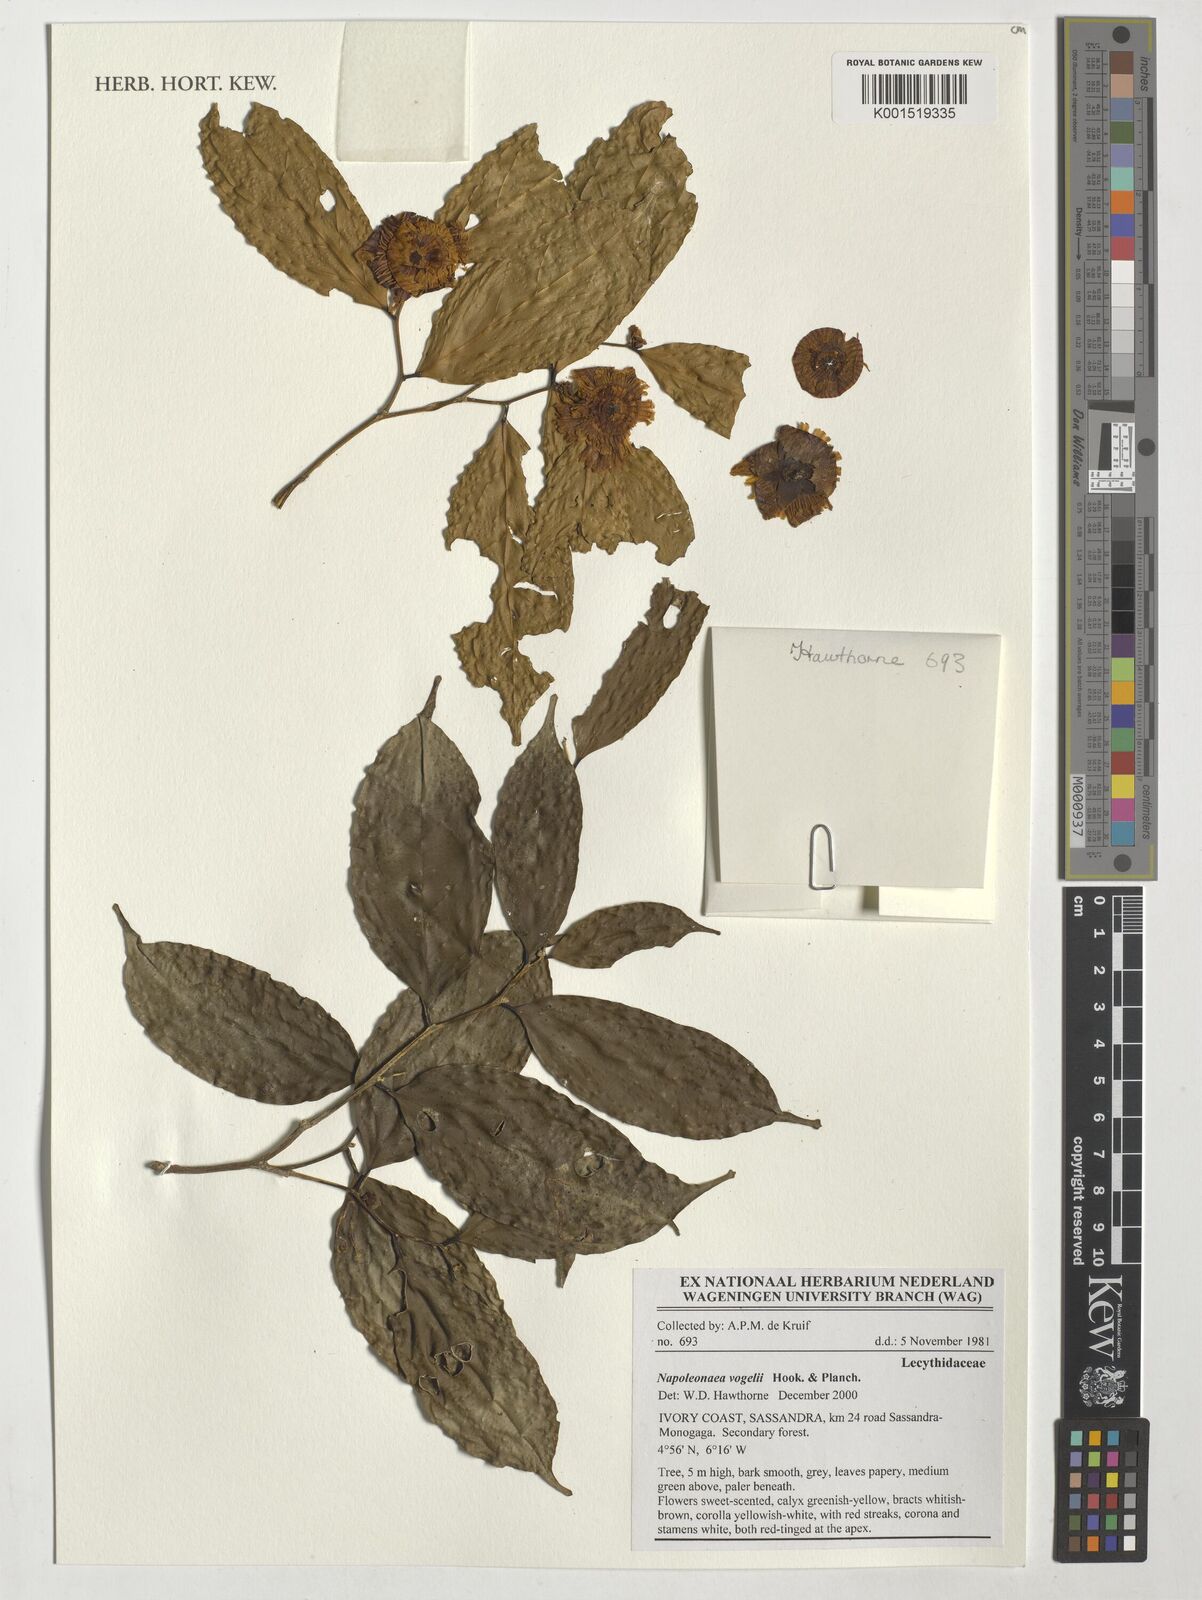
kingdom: Plantae
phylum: Tracheophyta
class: Magnoliopsida
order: Ericales
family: Lecythidaceae
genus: Napoleonaea
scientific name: Napoleonaea vogelii
